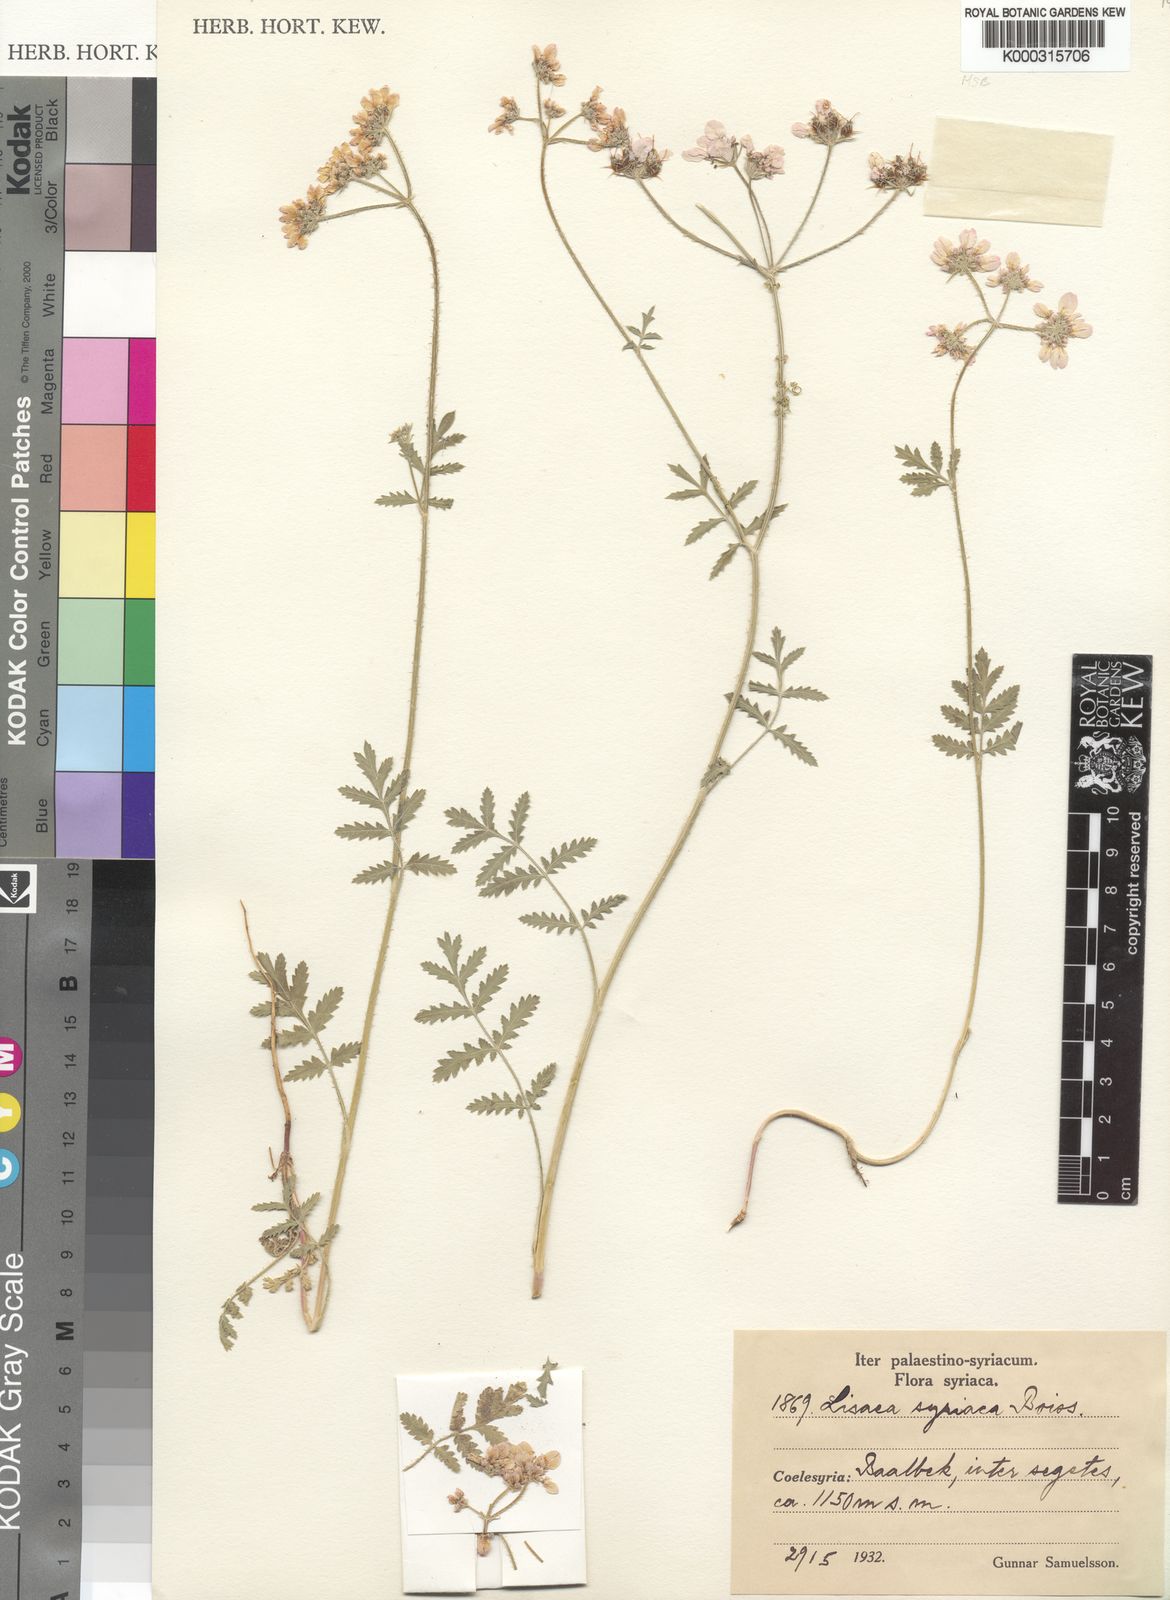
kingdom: Plantae
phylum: Tracheophyta
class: Magnoliopsida
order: Apiales
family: Apiaceae
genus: Lisaea
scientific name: Lisaea strigosa
